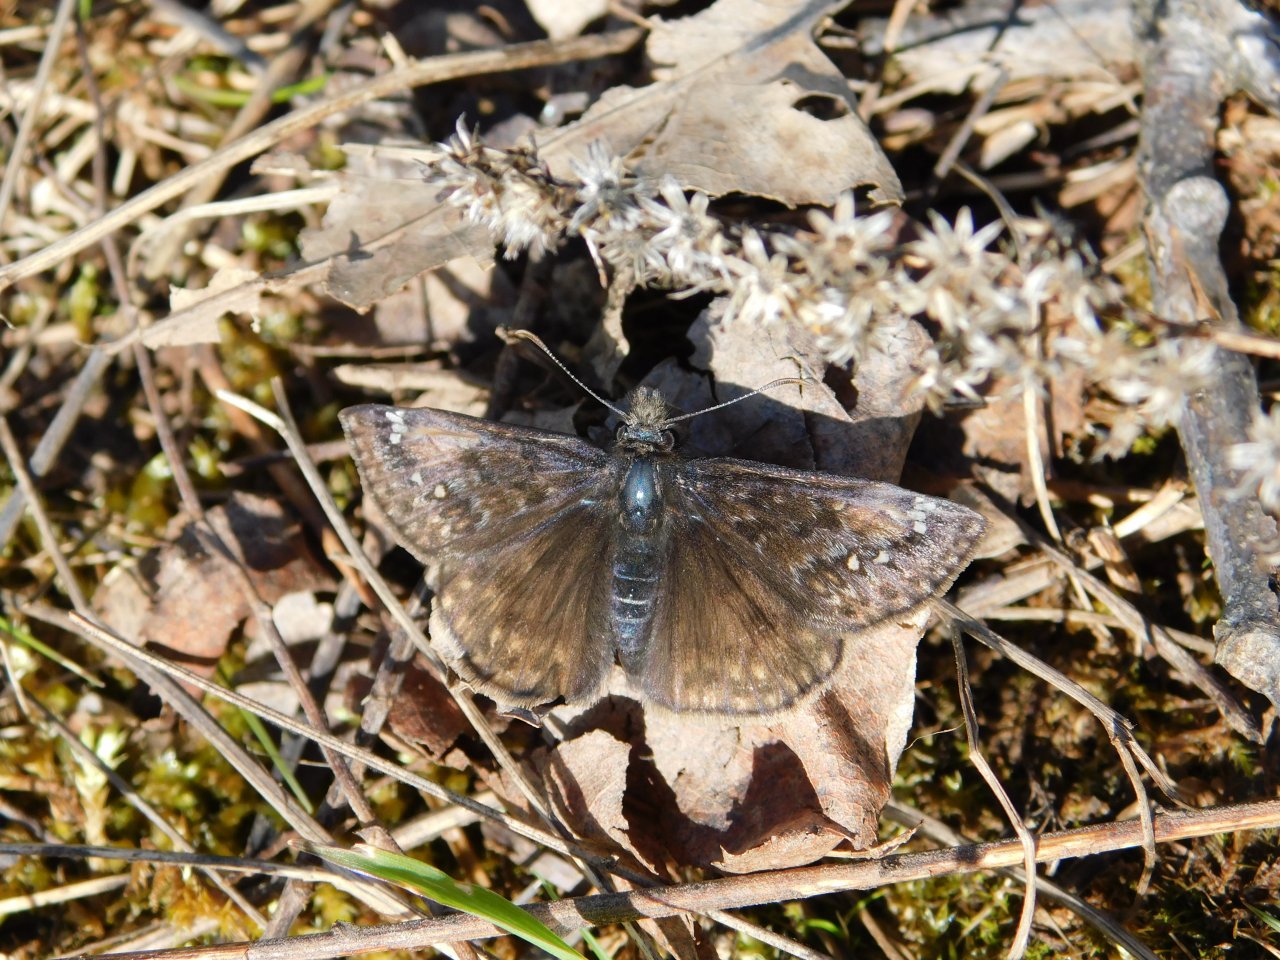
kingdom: Animalia
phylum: Arthropoda
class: Insecta
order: Lepidoptera
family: Hesperiidae
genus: Gesta
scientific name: Gesta
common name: Juvenal's Duskywing
